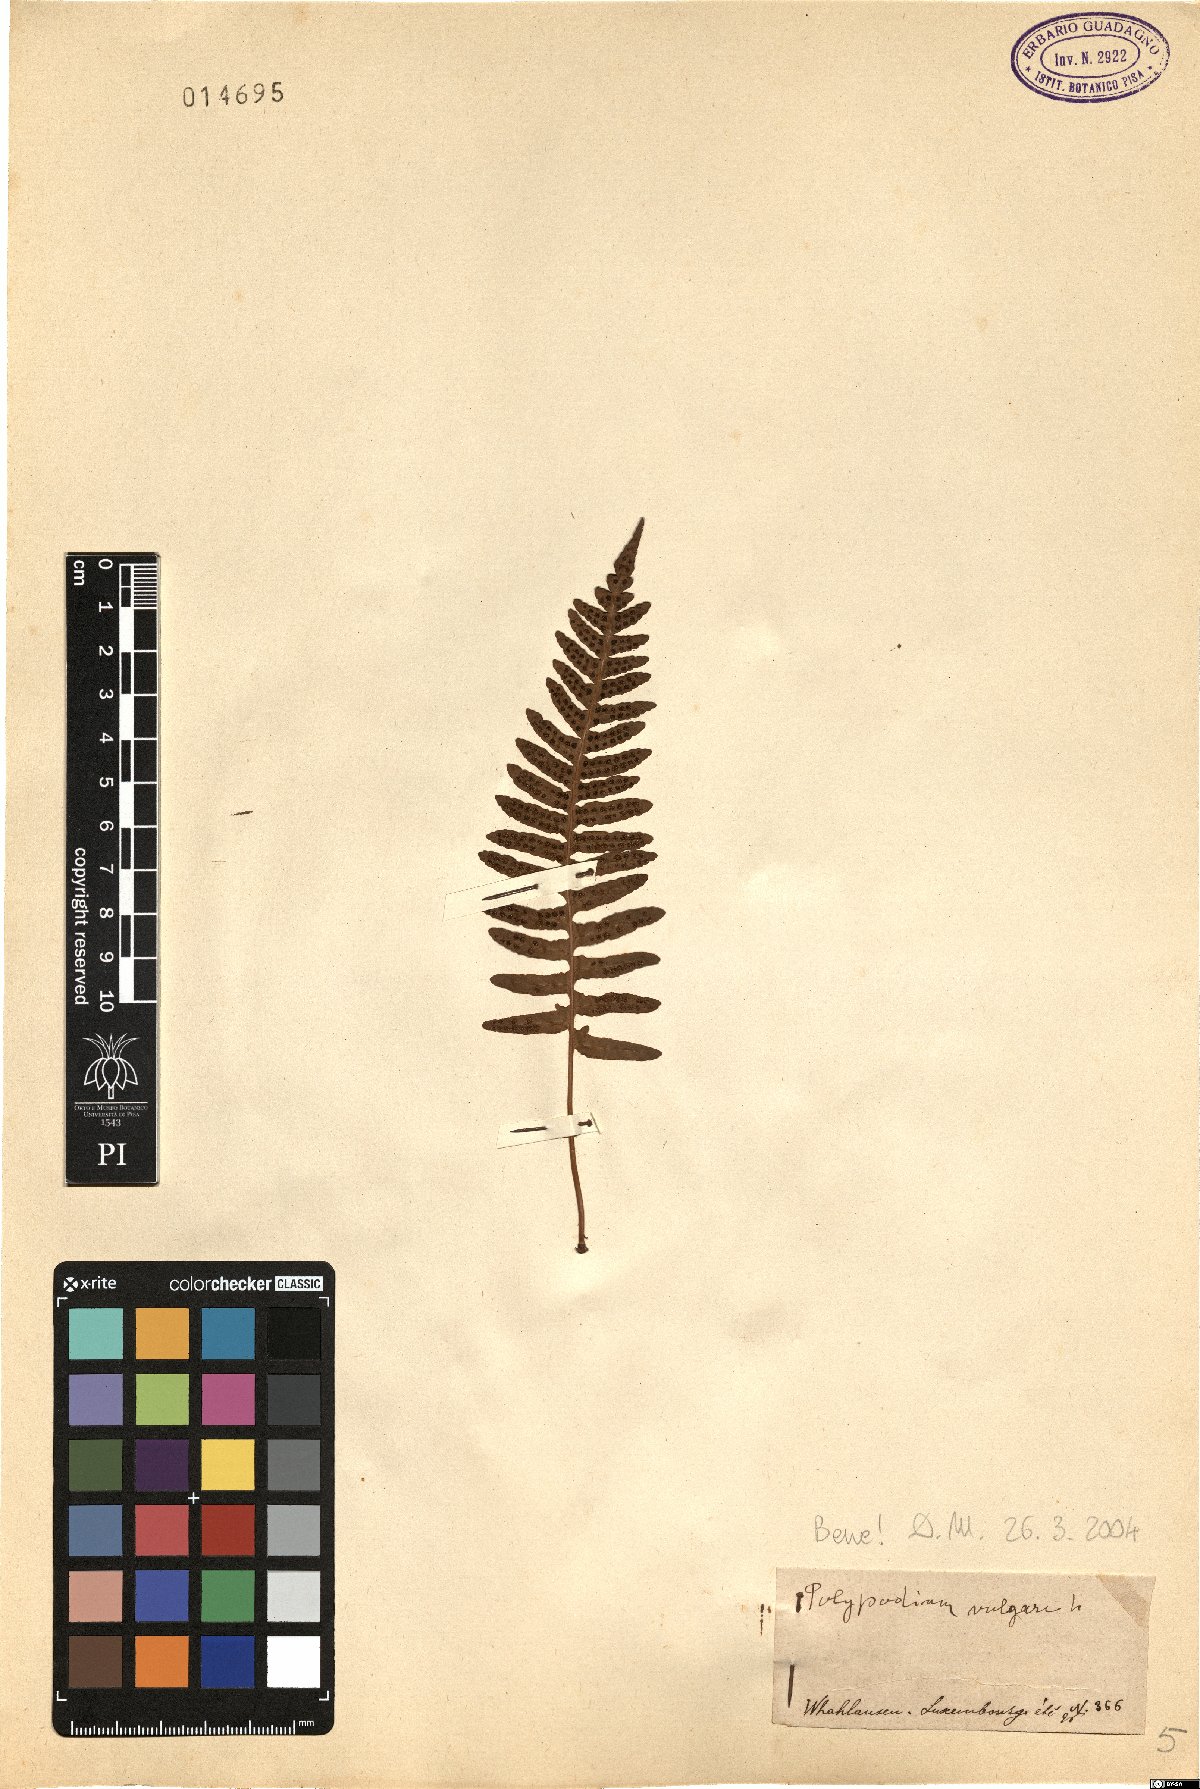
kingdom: Plantae
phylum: Tracheophyta
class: Polypodiopsida
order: Polypodiales
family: Polypodiaceae
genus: Polypodium
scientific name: Polypodium vulgare
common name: Common polypody
